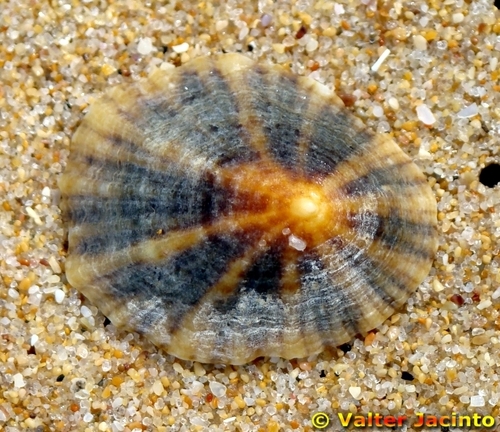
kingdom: Animalia
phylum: Mollusca
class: Gastropoda
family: Patellidae
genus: Patella
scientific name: Patella vulgata
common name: Common limpet
